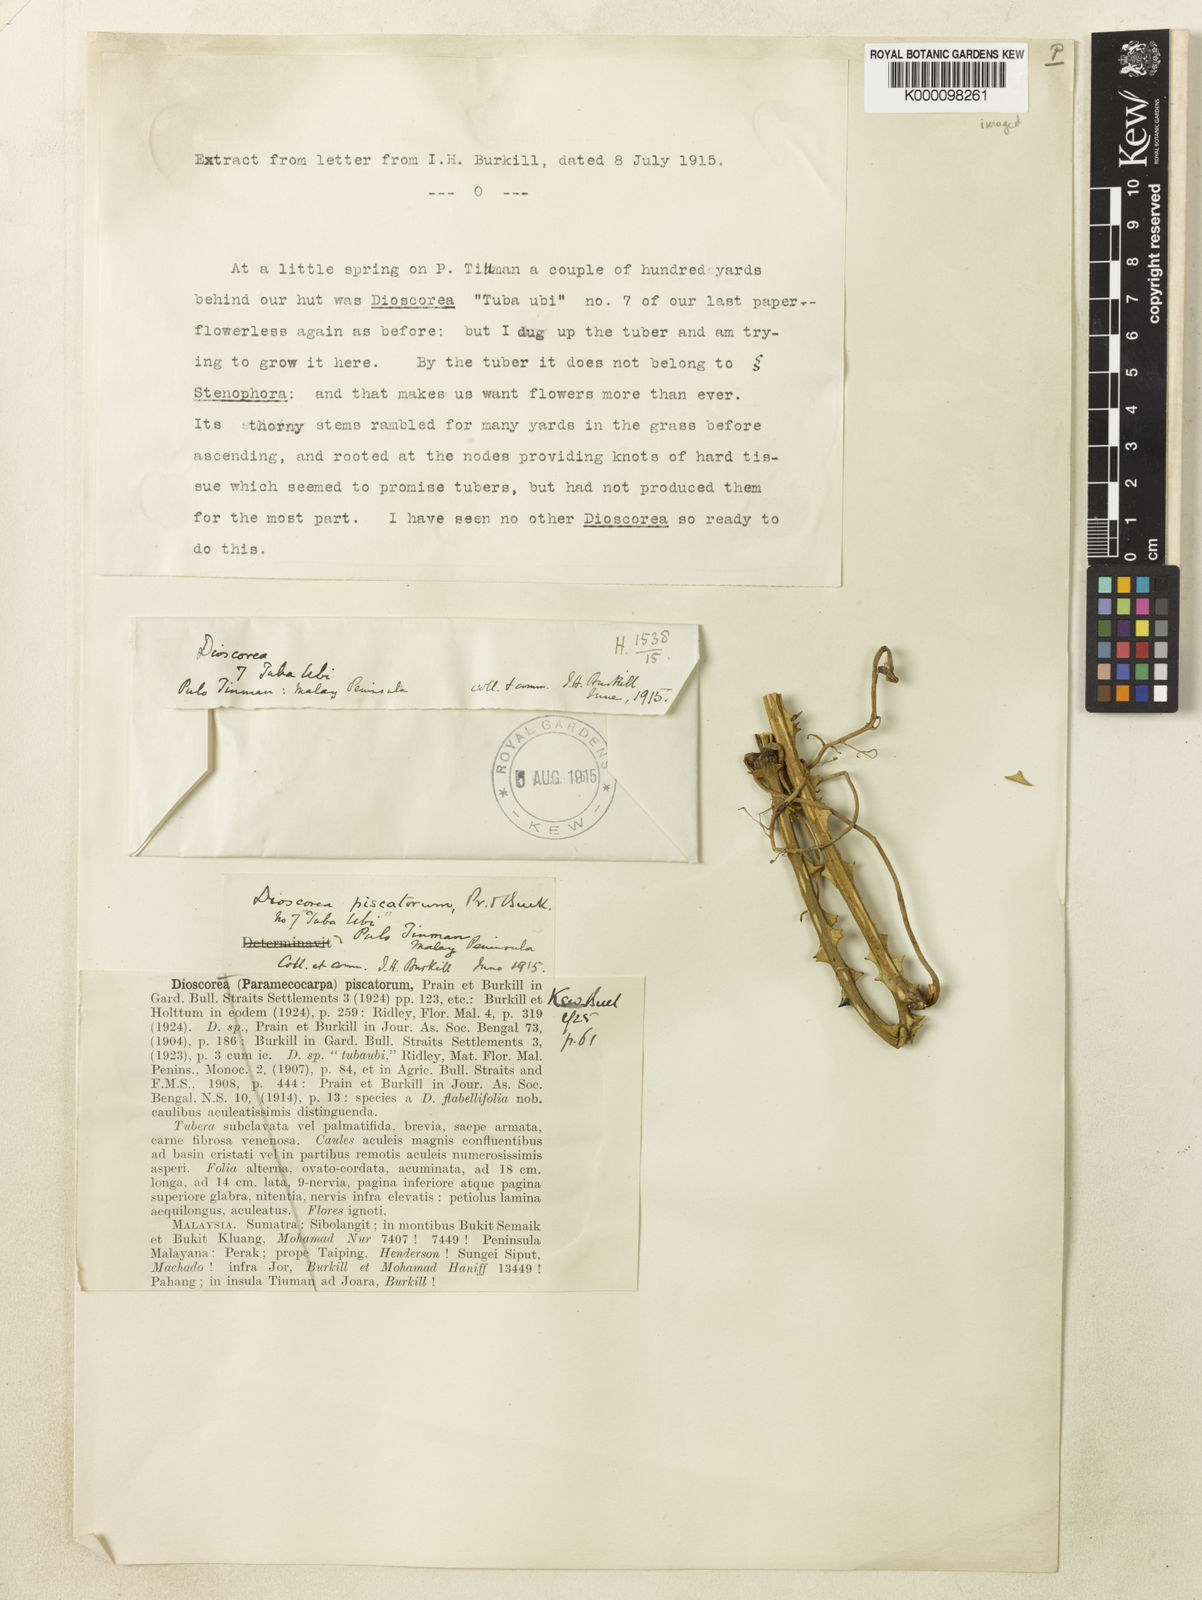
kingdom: Plantae
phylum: Tracheophyta
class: Liliopsida
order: Dioscoreales
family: Dioscoreaceae
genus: Dioscorea
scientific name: Dioscorea piscatorum
